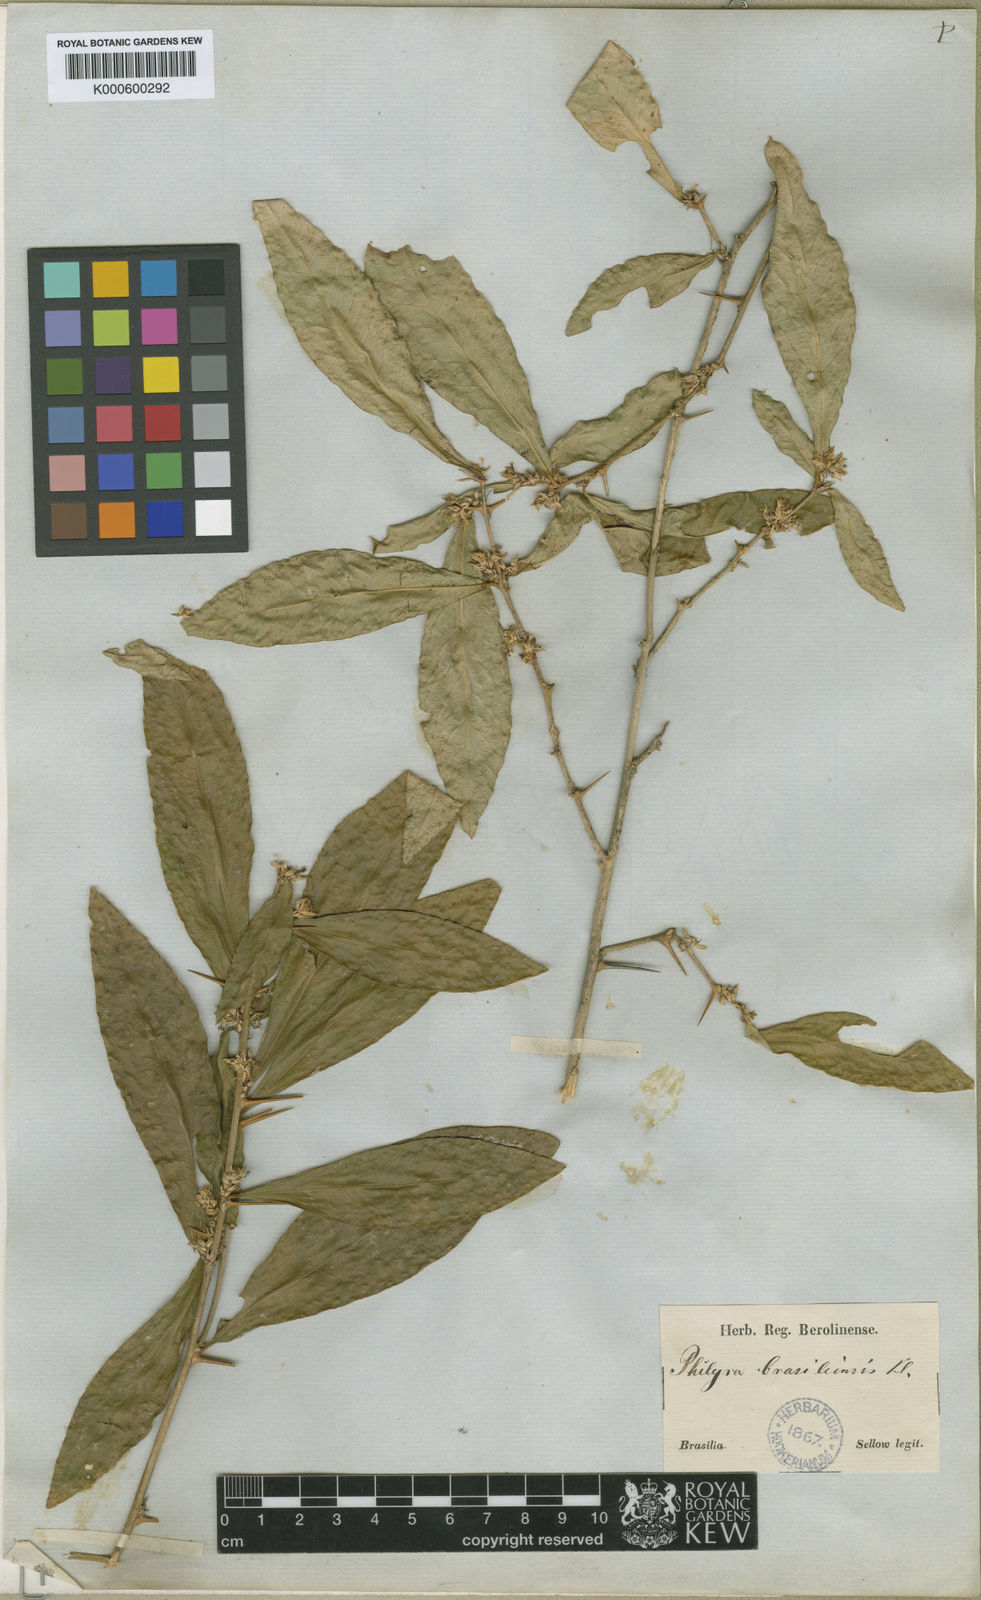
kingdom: Plantae
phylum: Tracheophyta
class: Magnoliopsida
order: Malpighiales
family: Euphorbiaceae
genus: Philyra
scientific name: Philyra brasiliensis
